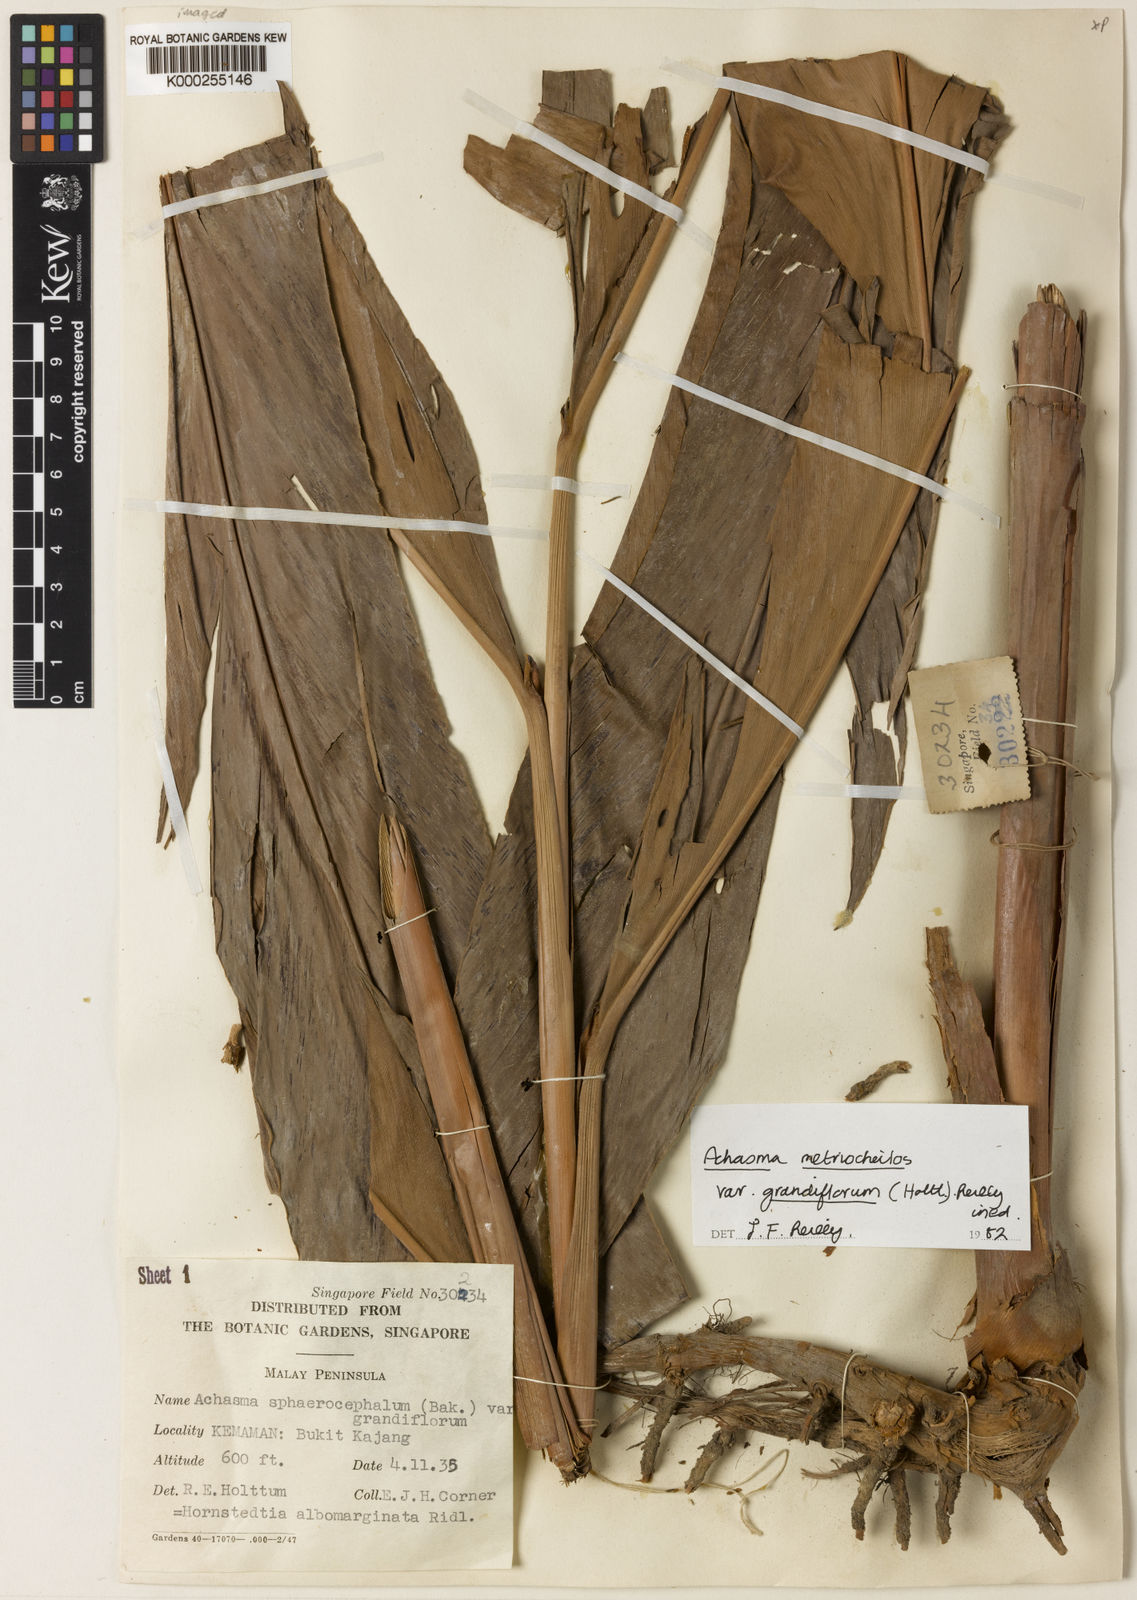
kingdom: Plantae
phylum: Tracheophyta
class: Liliopsida
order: Zingiberales
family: Zingiberaceae
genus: Etlingera
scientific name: Etlingera
